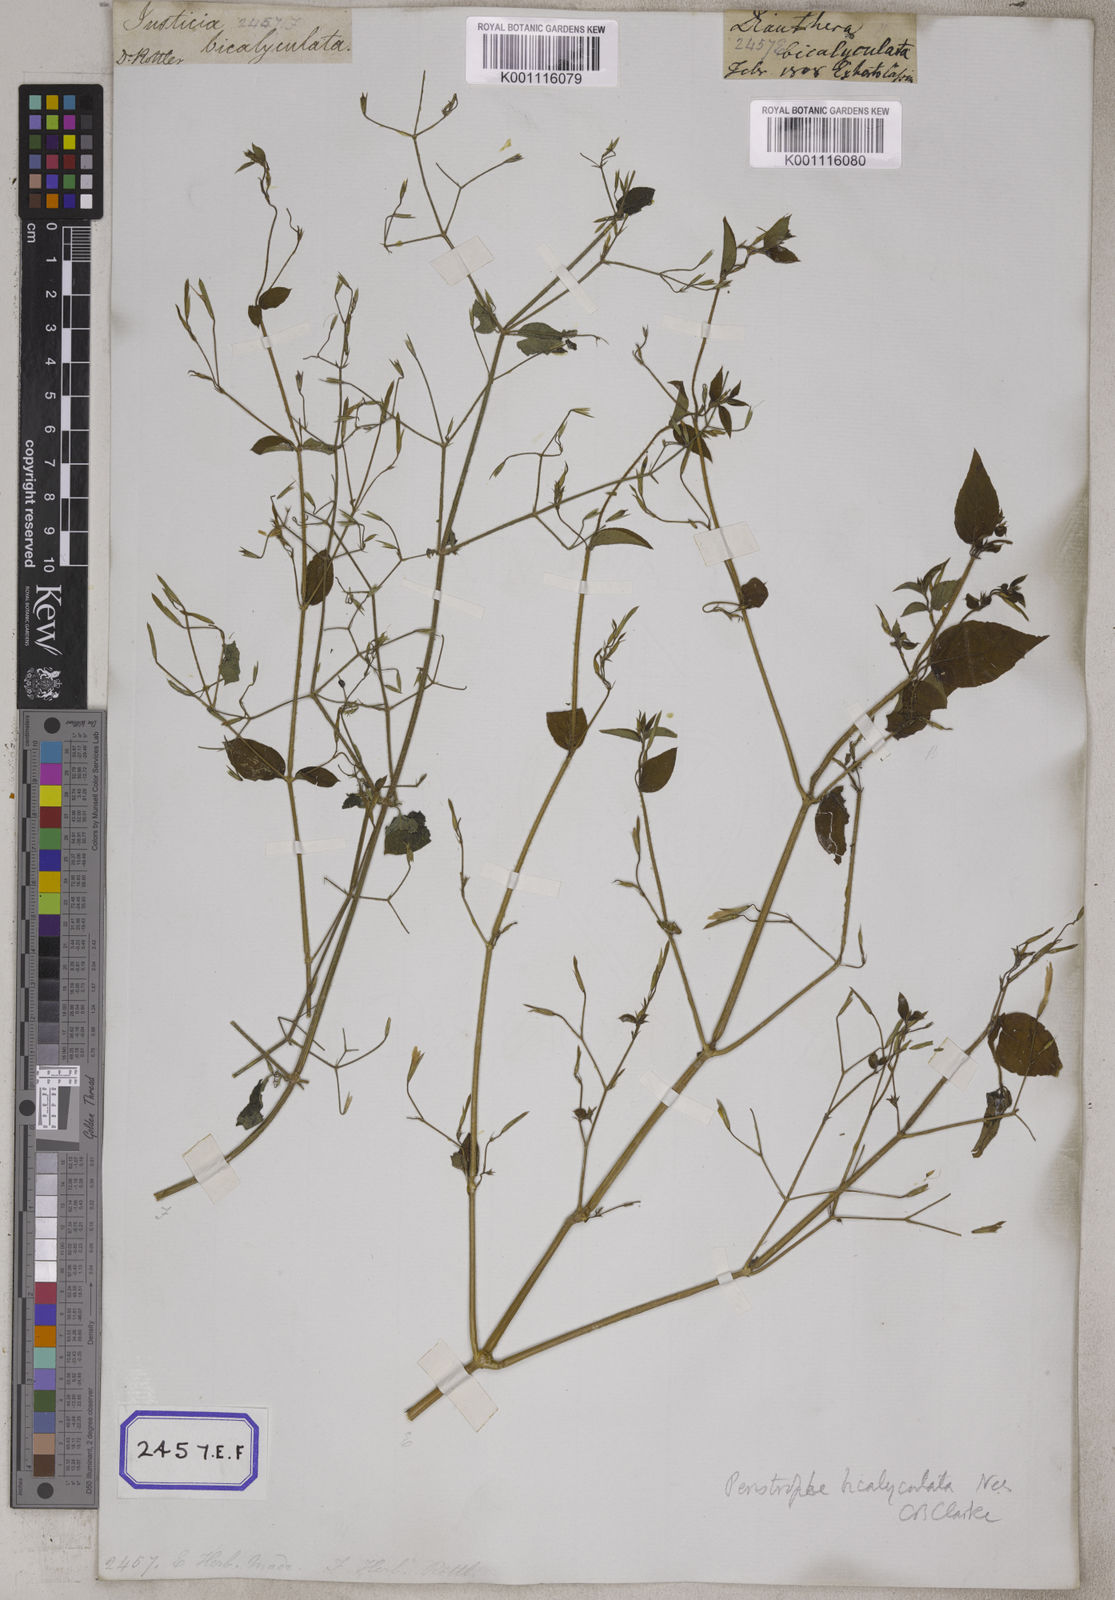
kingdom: Plantae
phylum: Tracheophyta
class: Magnoliopsida
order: Lamiales
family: Acanthaceae
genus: Dicliptera
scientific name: Dicliptera paniculata
